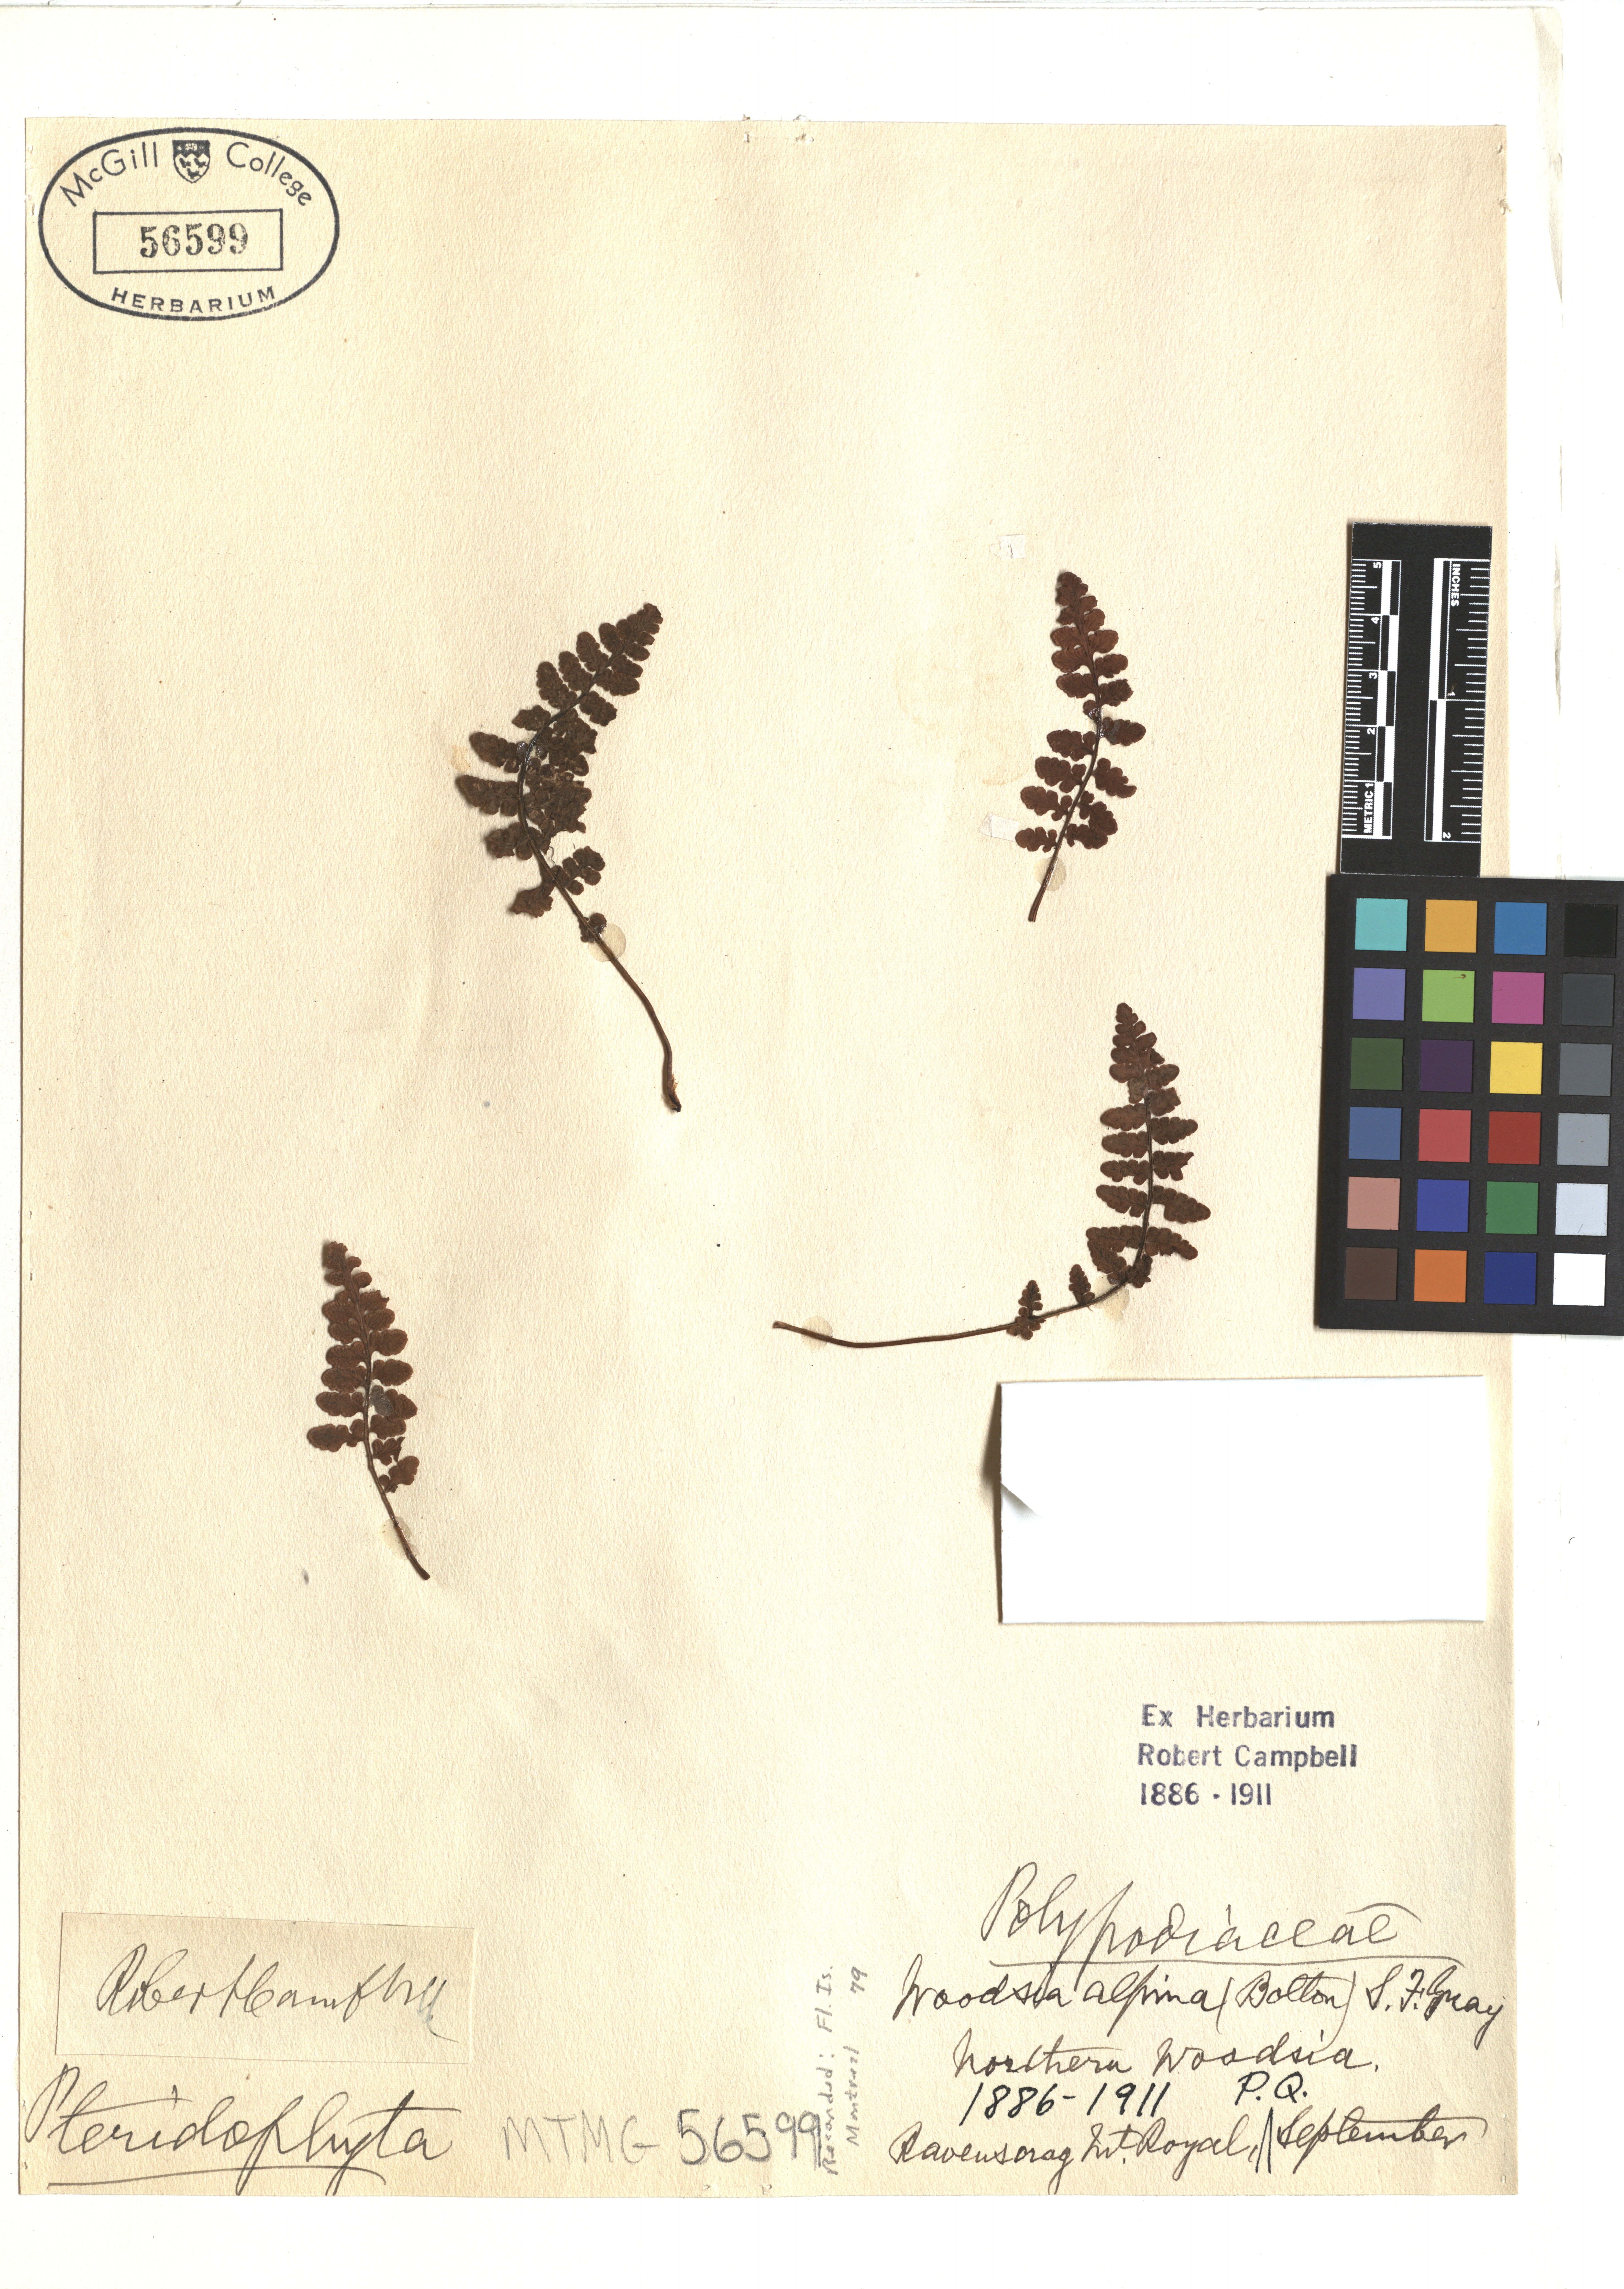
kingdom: Plantae
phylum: Tracheophyta
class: Polypodiopsida
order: Polypodiales
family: Woodsiaceae
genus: Woodsia
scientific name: Woodsia alpina
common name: Alpine woodsia
